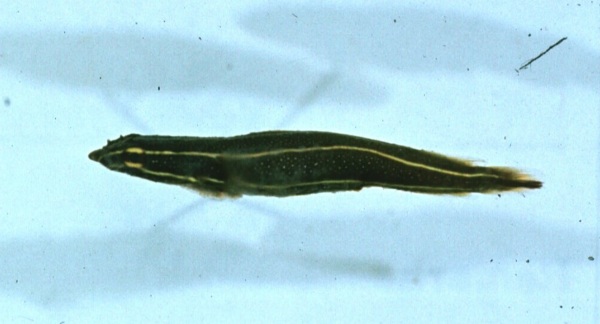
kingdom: Animalia
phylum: Chordata
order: Gobiesociformes
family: Gobiesocidae
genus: Lepadichthys
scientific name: Lepadichthys lineatus
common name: Doubleline clingfish
